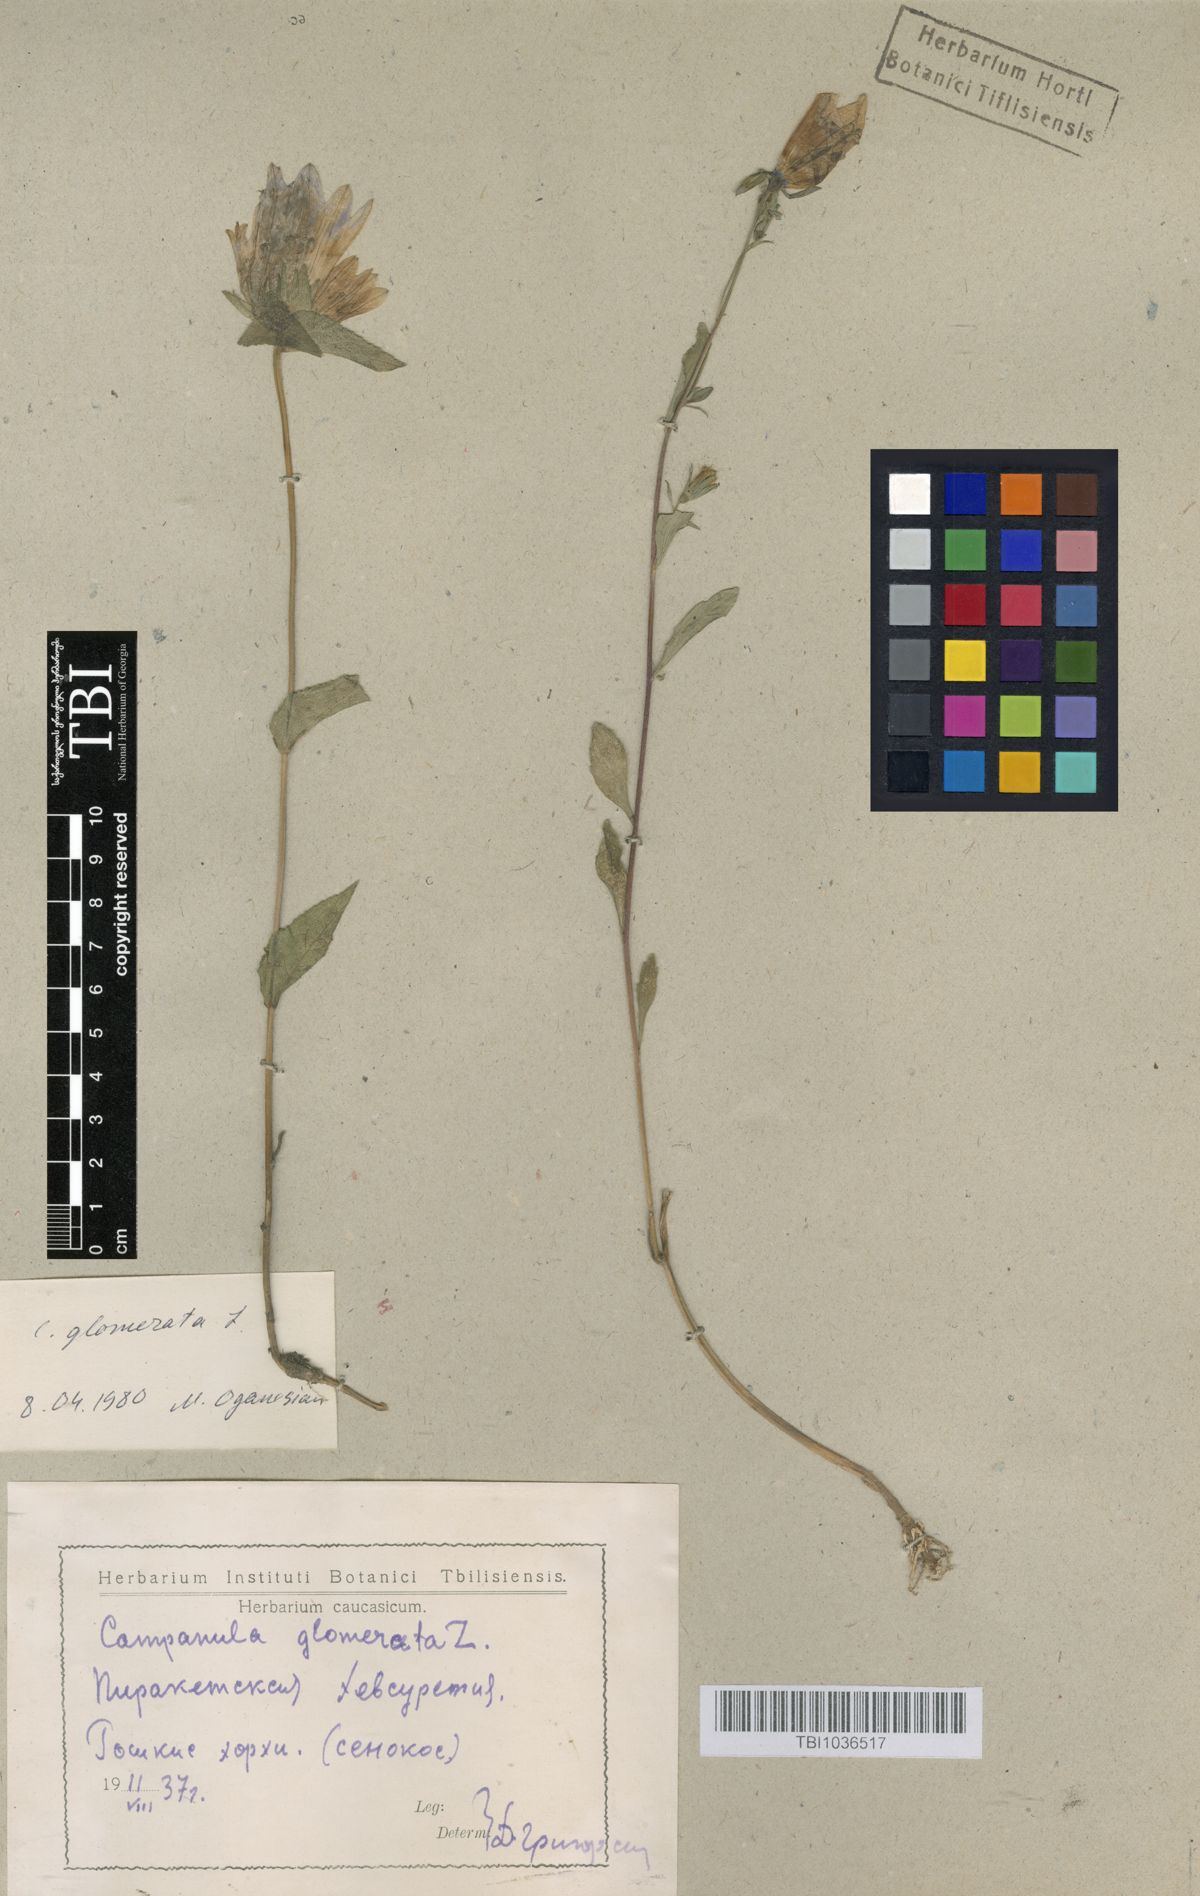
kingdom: Plantae
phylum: Tracheophyta
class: Magnoliopsida
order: Asterales
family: Campanulaceae
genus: Campanula
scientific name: Campanula glomerata
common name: Clustered bellflower
